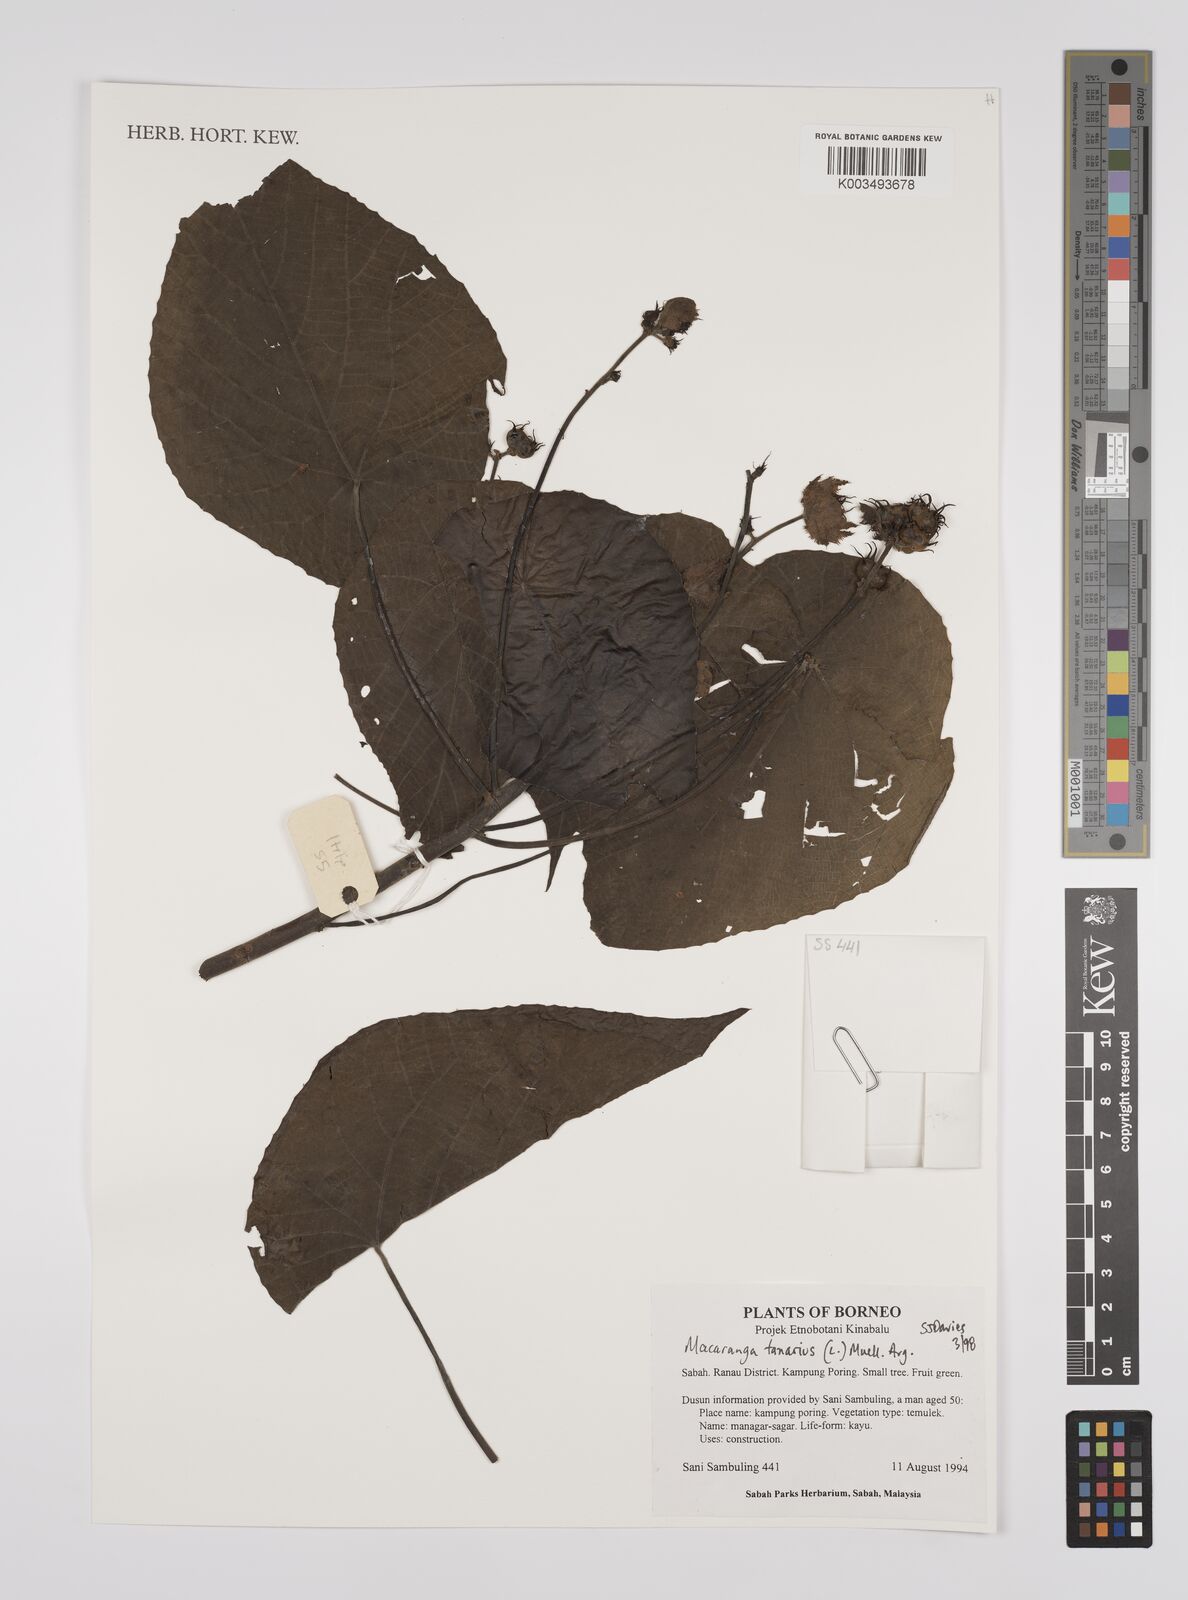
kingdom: Plantae
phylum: Tracheophyta
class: Magnoliopsida
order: Malpighiales
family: Euphorbiaceae
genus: Macaranga
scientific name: Macaranga tanarius
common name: Parasol leaf tree
